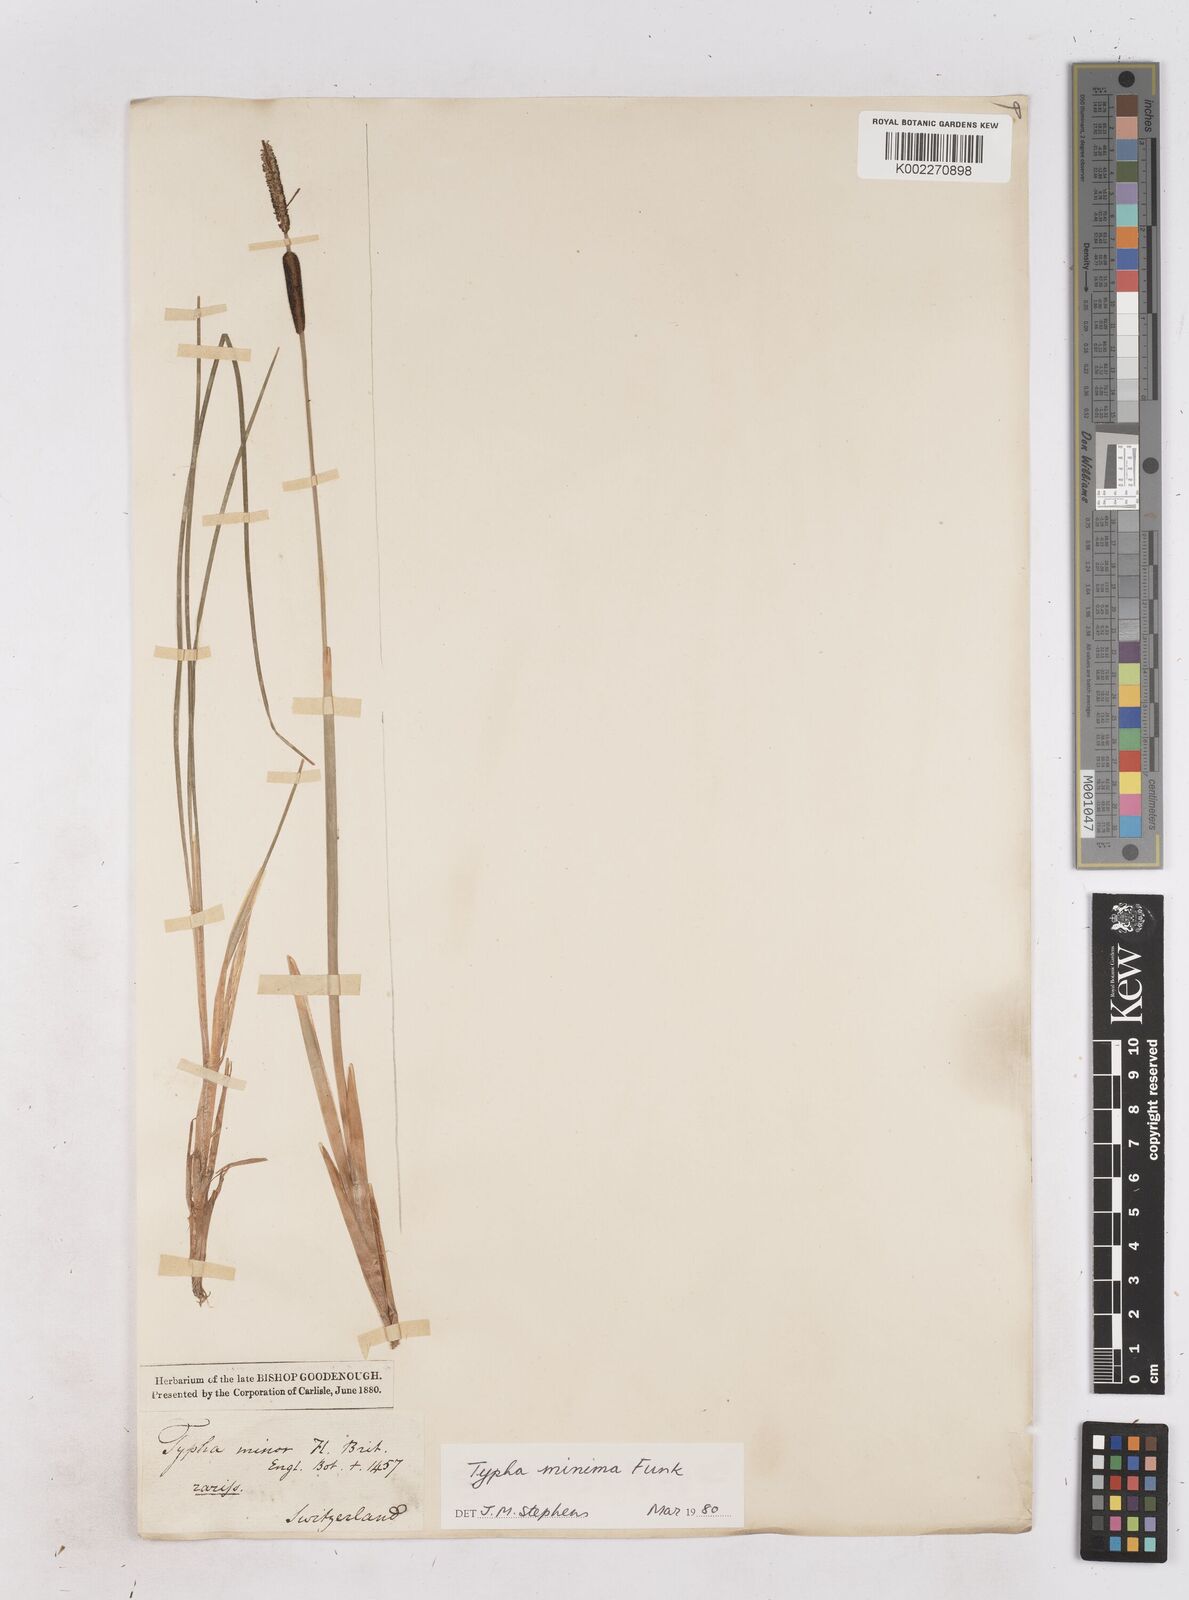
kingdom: Plantae
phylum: Tracheophyta
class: Liliopsida
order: Poales
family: Typhaceae
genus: Typha
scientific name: Typha minima
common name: Dwarf bulrush
